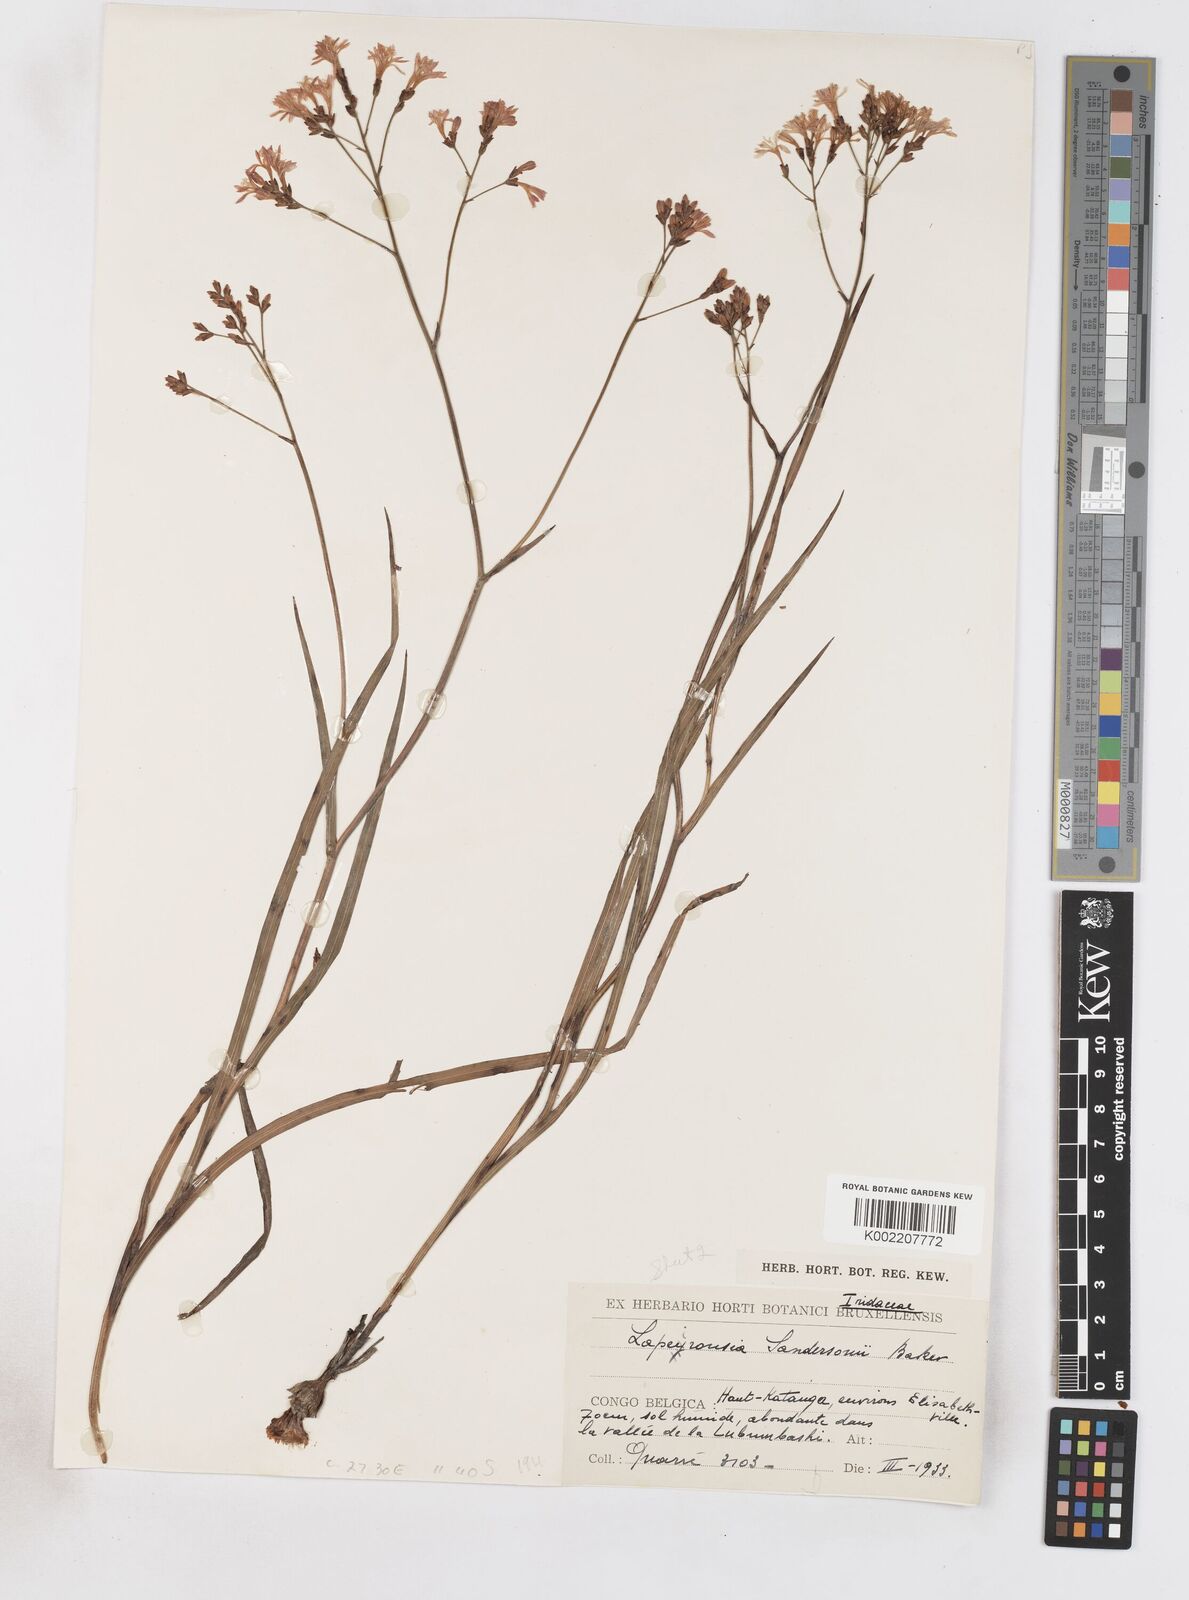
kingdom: Plantae
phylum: Tracheophyta
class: Liliopsida
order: Asparagales
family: Iridaceae
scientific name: Iridaceae
